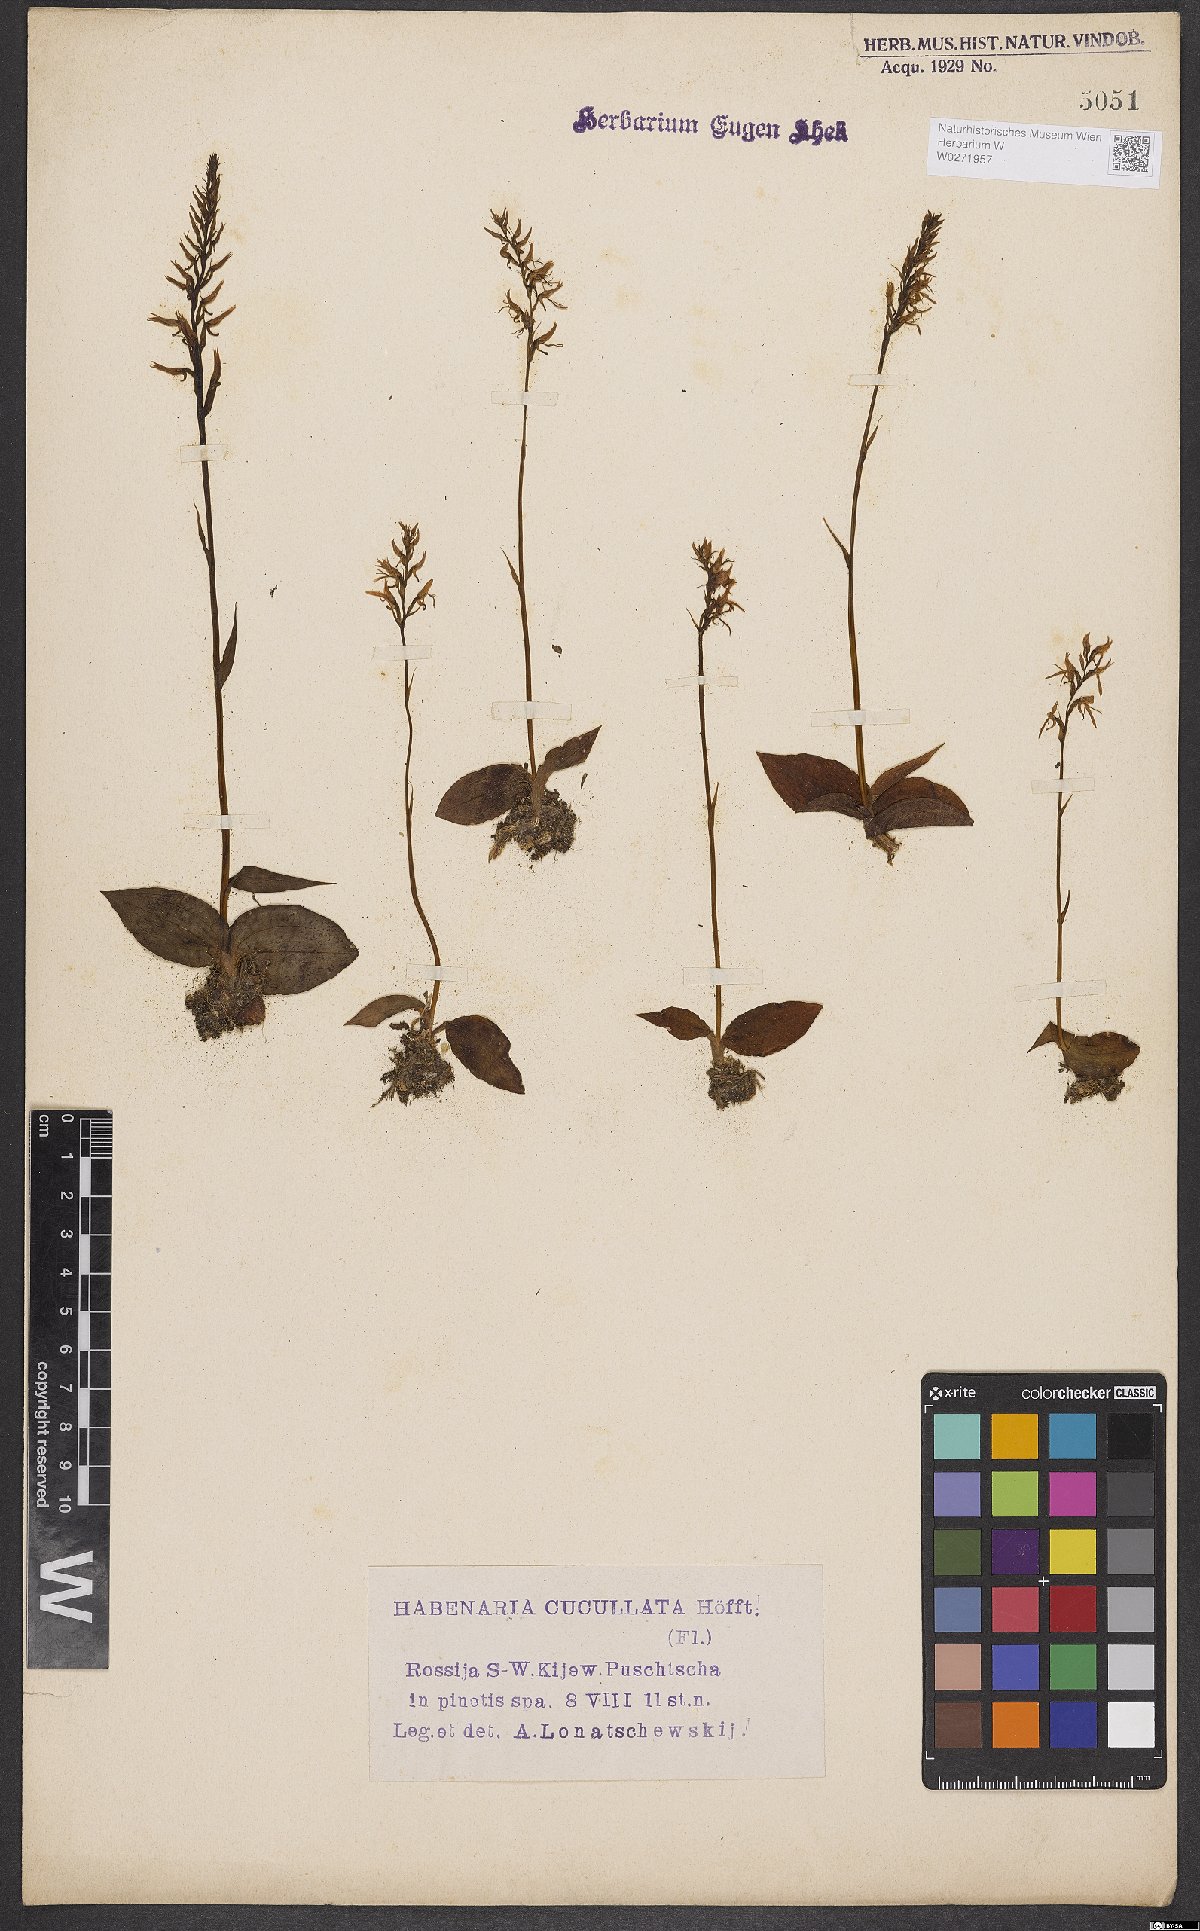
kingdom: Plantae
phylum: Tracheophyta
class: Liliopsida
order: Asparagales
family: Orchidaceae
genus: Hemipilia
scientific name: Hemipilia cucullata
